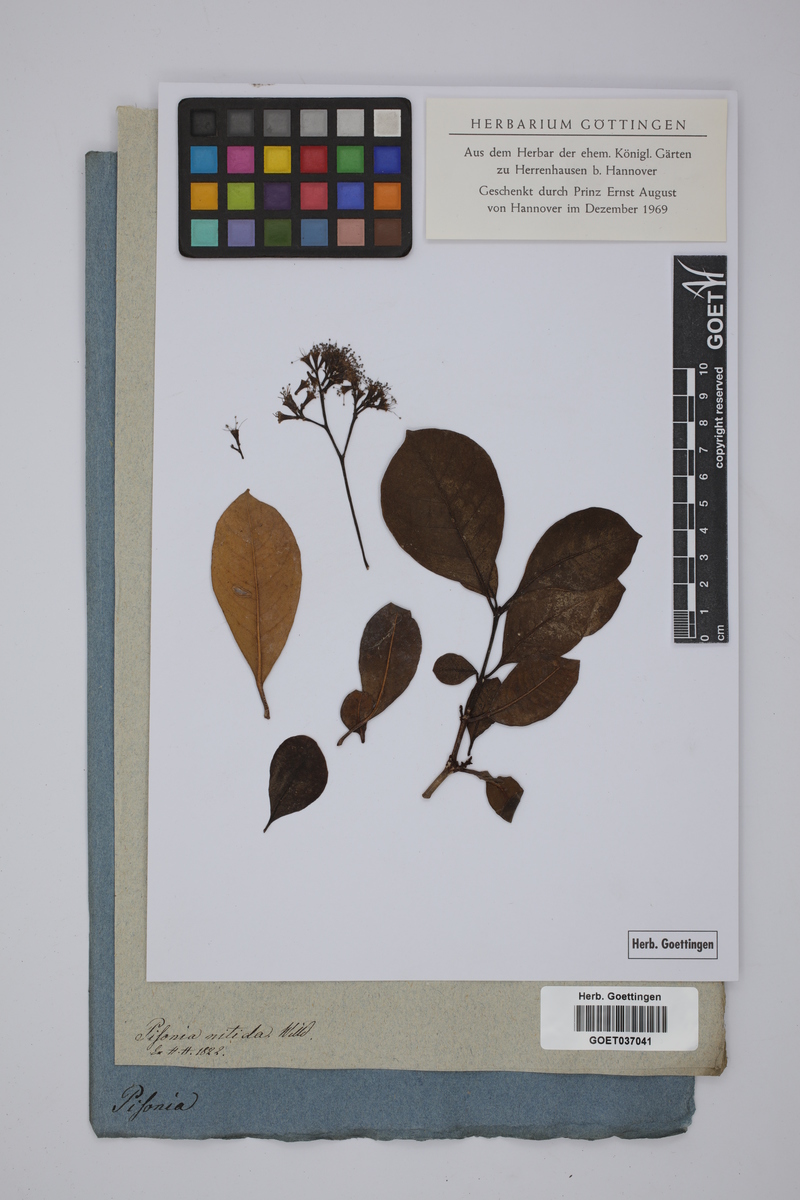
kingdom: Plantae
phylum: Tracheophyta
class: Magnoliopsida
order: Caryophyllales
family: Nyctaginaceae
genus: Guapira
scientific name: Guapira nitida
